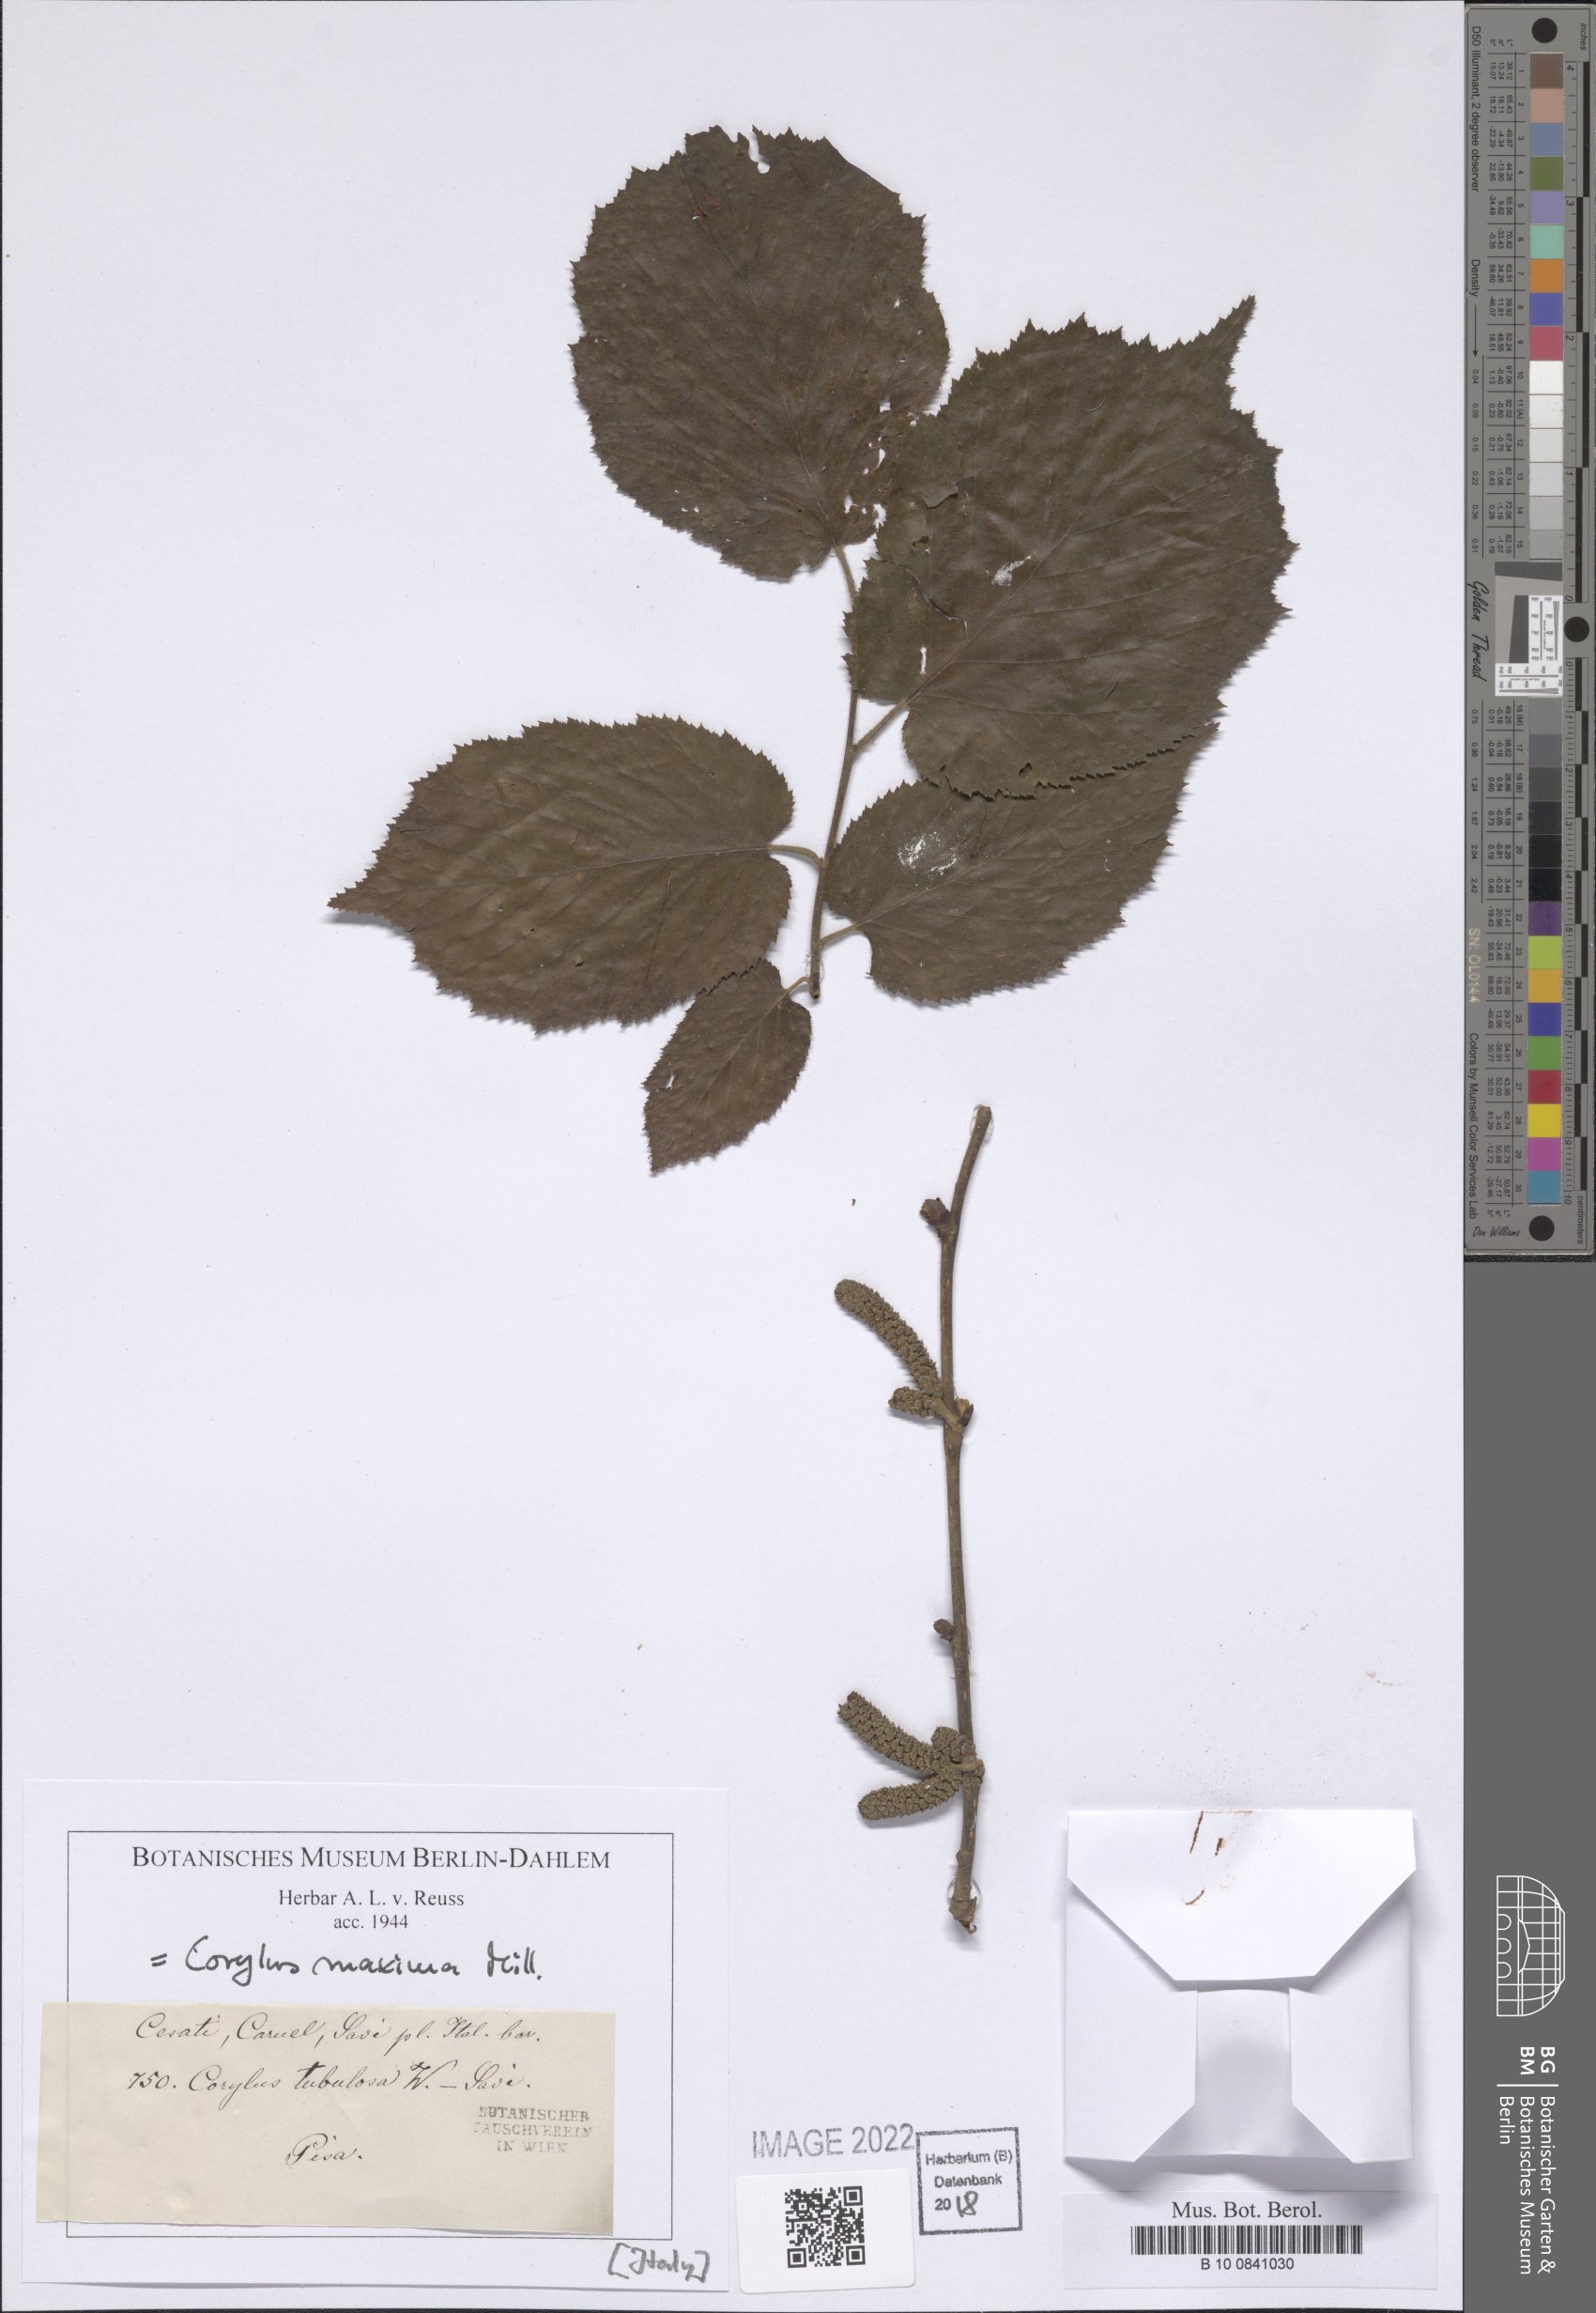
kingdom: Plantae
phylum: Tracheophyta
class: Magnoliopsida
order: Fagales
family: Betulaceae
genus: Corylus
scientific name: Corylus maxima
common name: Filbert
